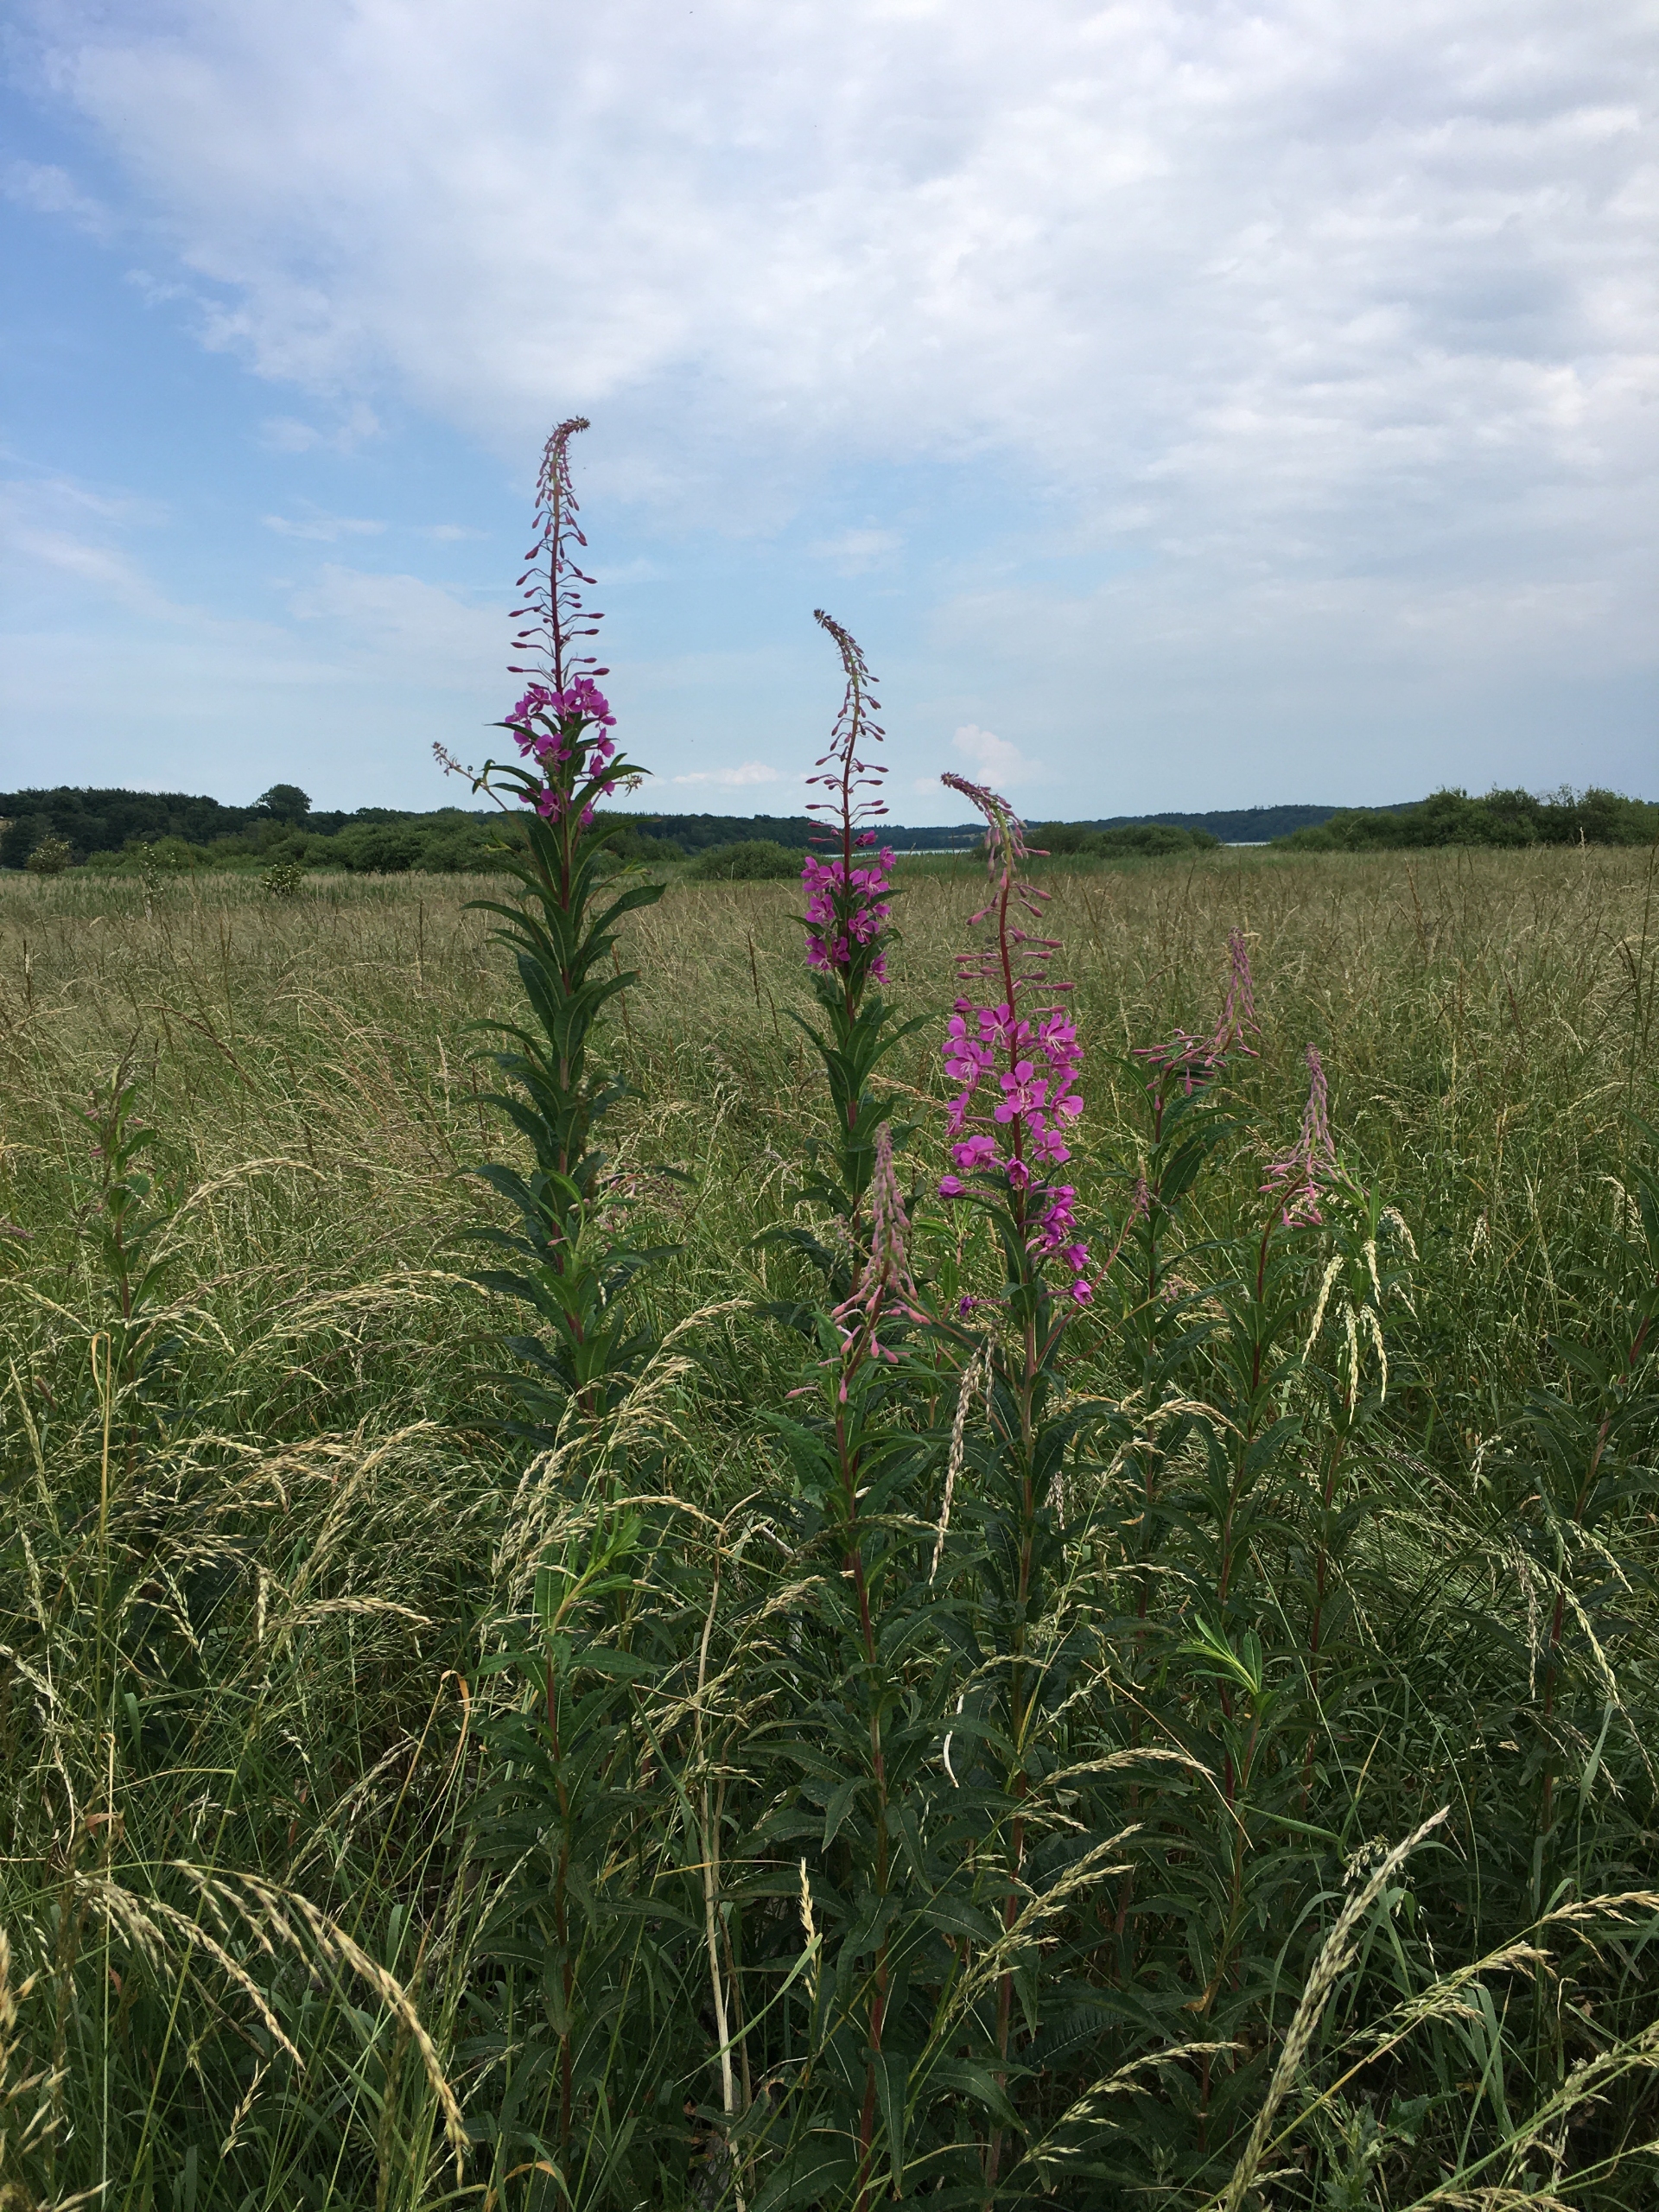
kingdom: Plantae
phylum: Tracheophyta
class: Magnoliopsida
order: Myrtales
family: Onagraceae
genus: Chamaenerion
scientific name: Chamaenerion angustifolium
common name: Gederams
